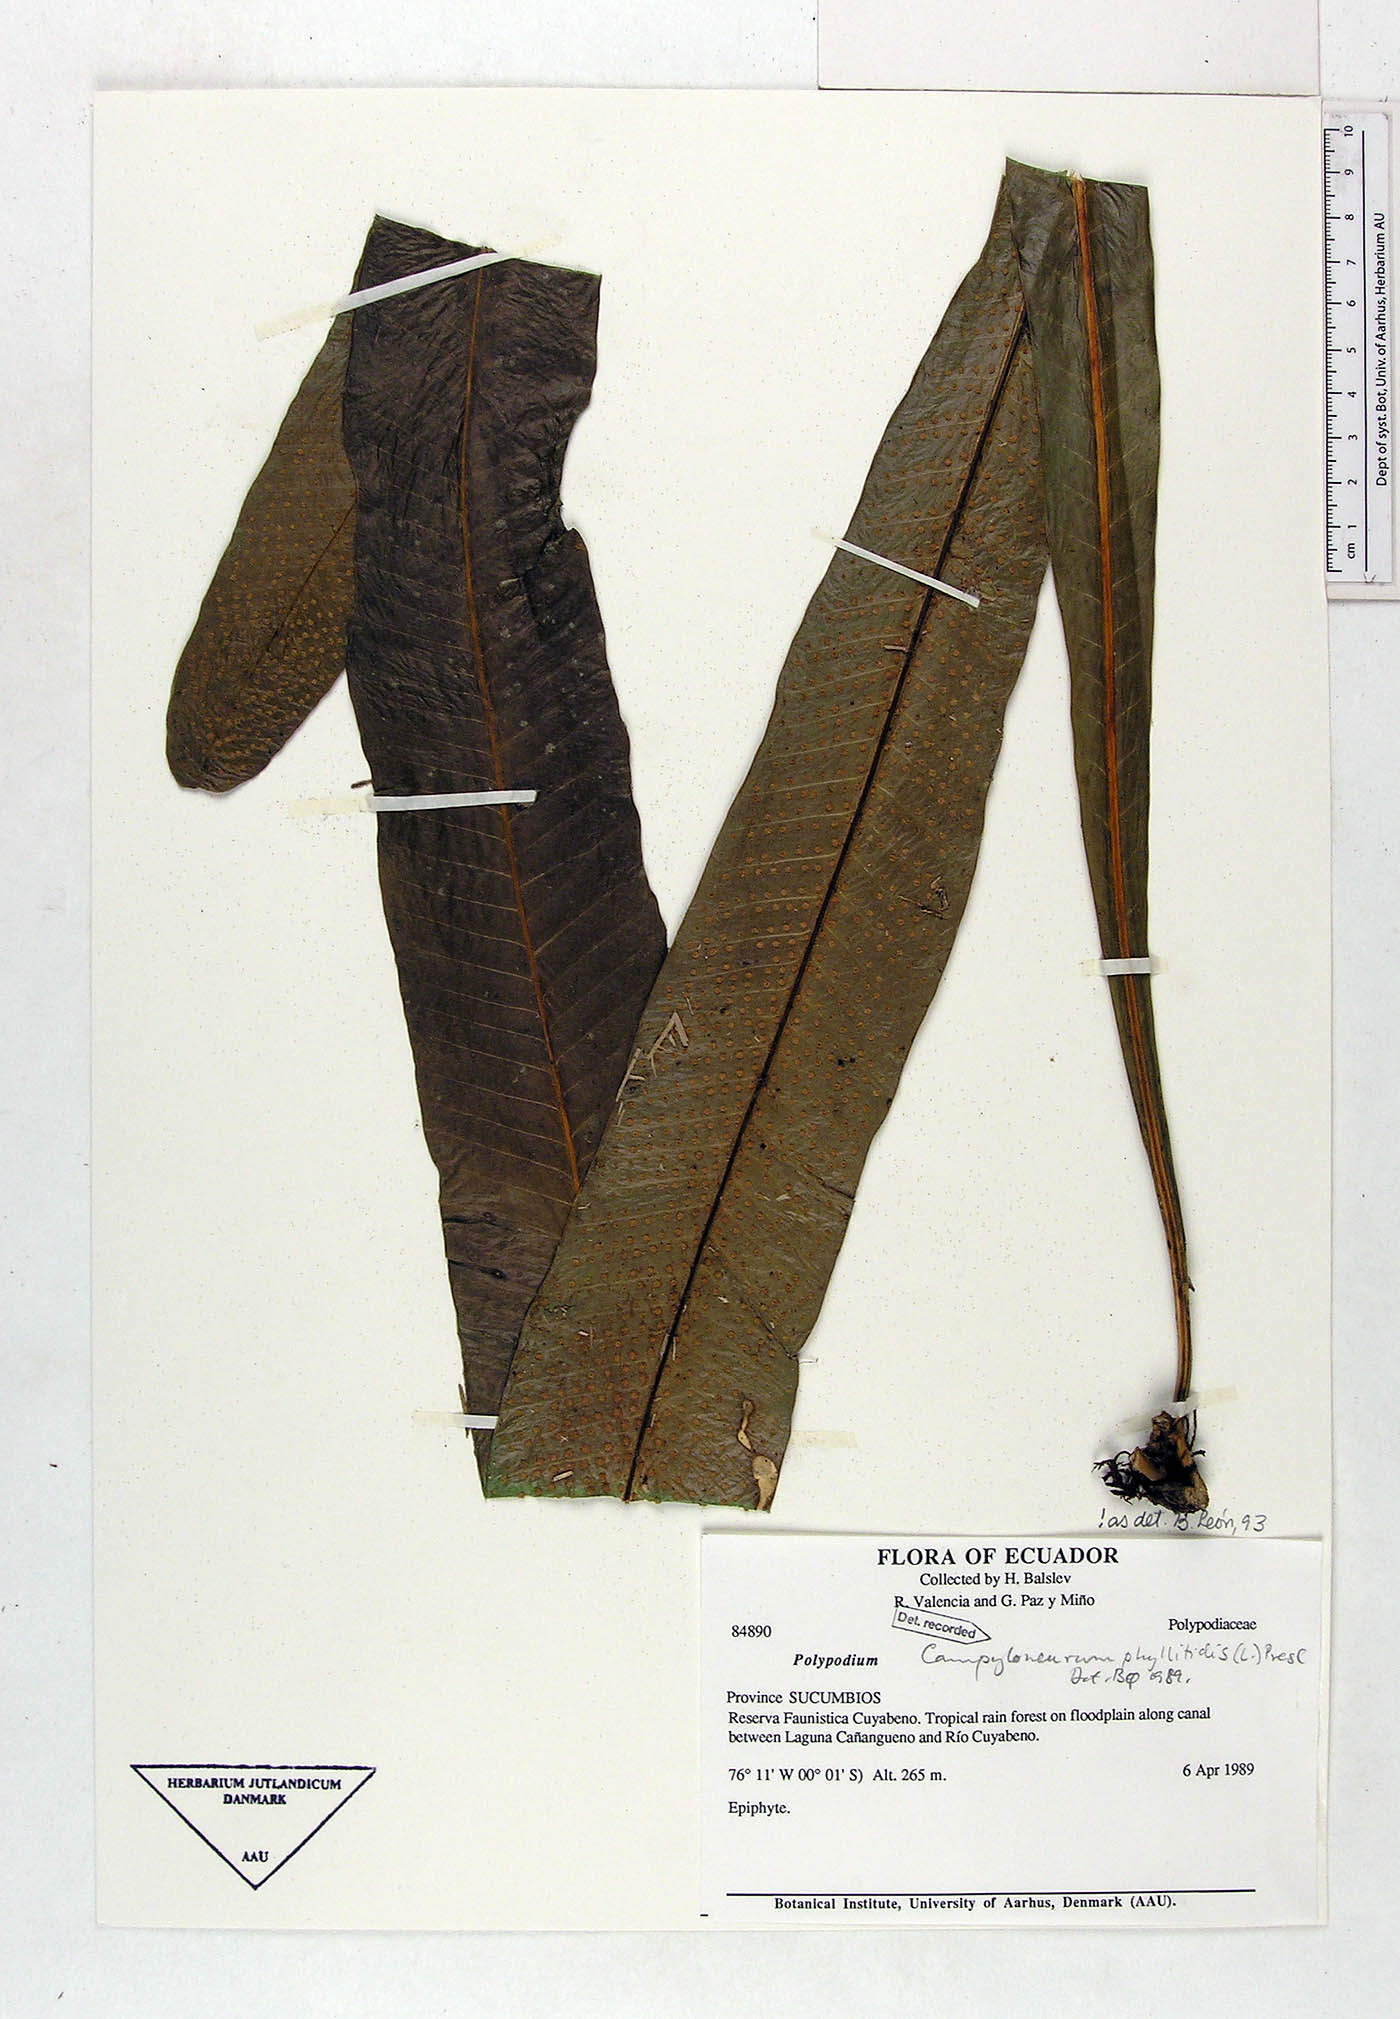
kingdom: Plantae
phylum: Tracheophyta
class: Polypodiopsida
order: Polypodiales
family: Polypodiaceae
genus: Campyloneurum
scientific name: Campyloneurum phyllitidis
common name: Cow-tongue fern
